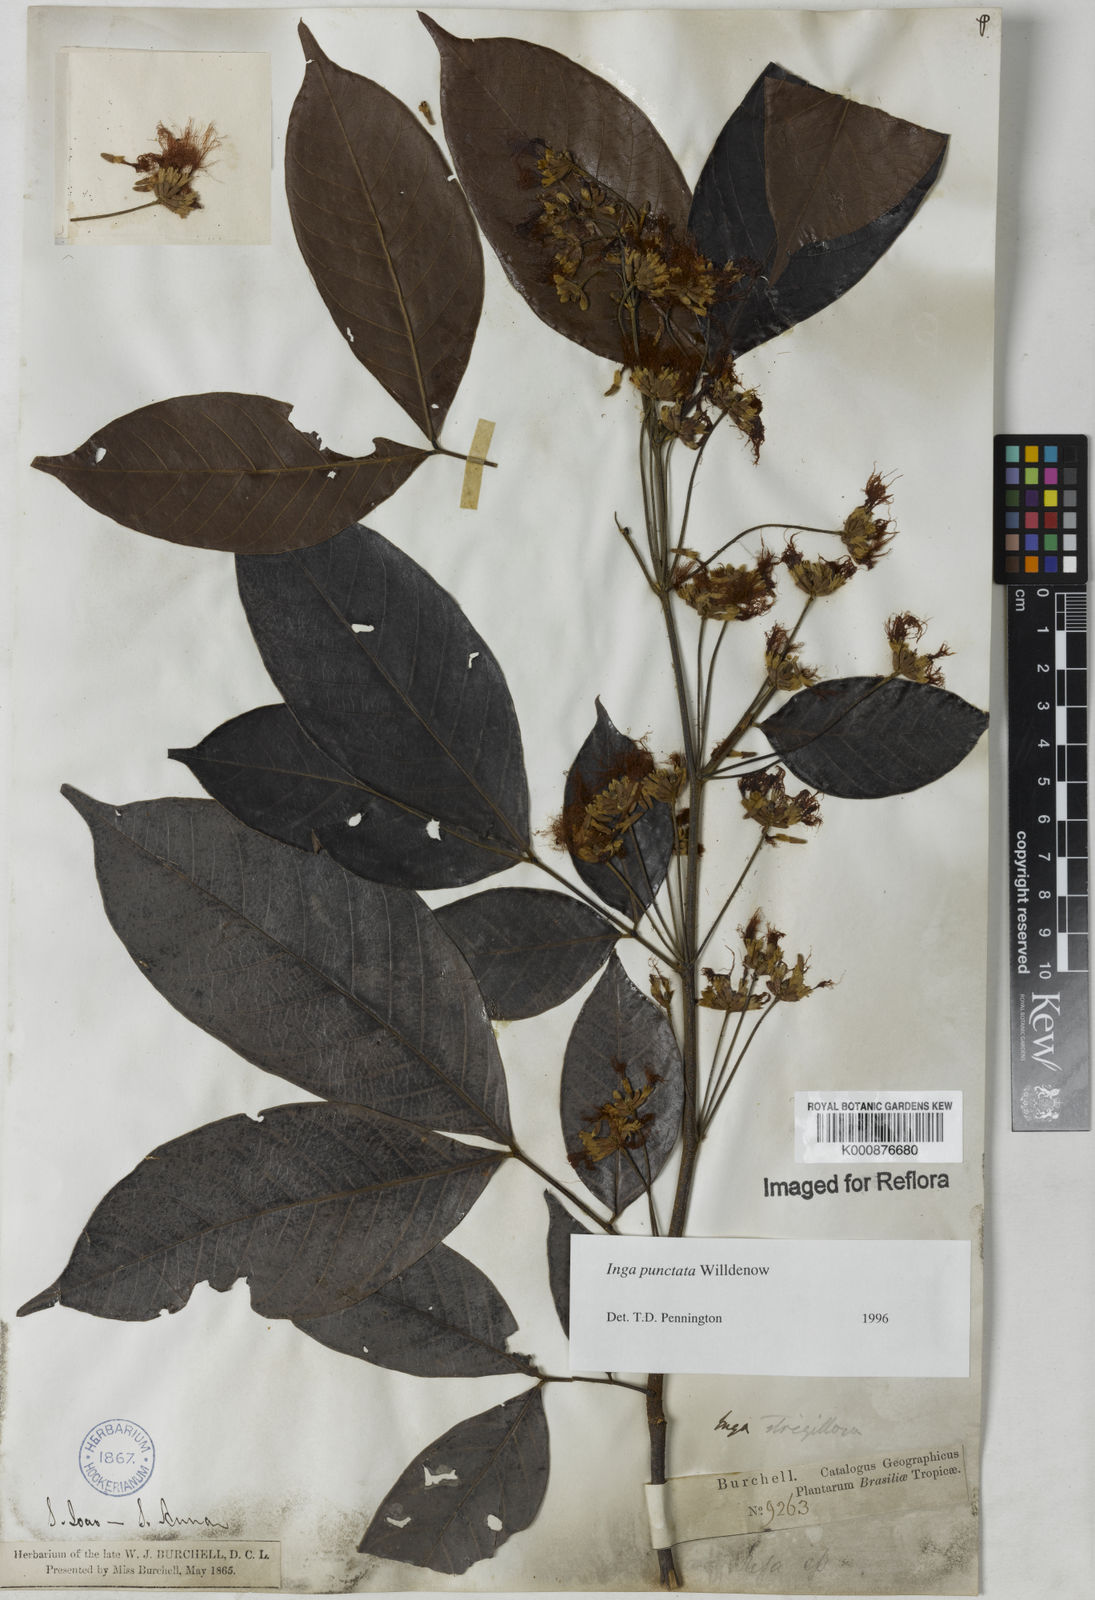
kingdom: Plantae
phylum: Tracheophyta
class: Magnoliopsida
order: Fabales
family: Fabaceae
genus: Inga
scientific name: Inga punctata
